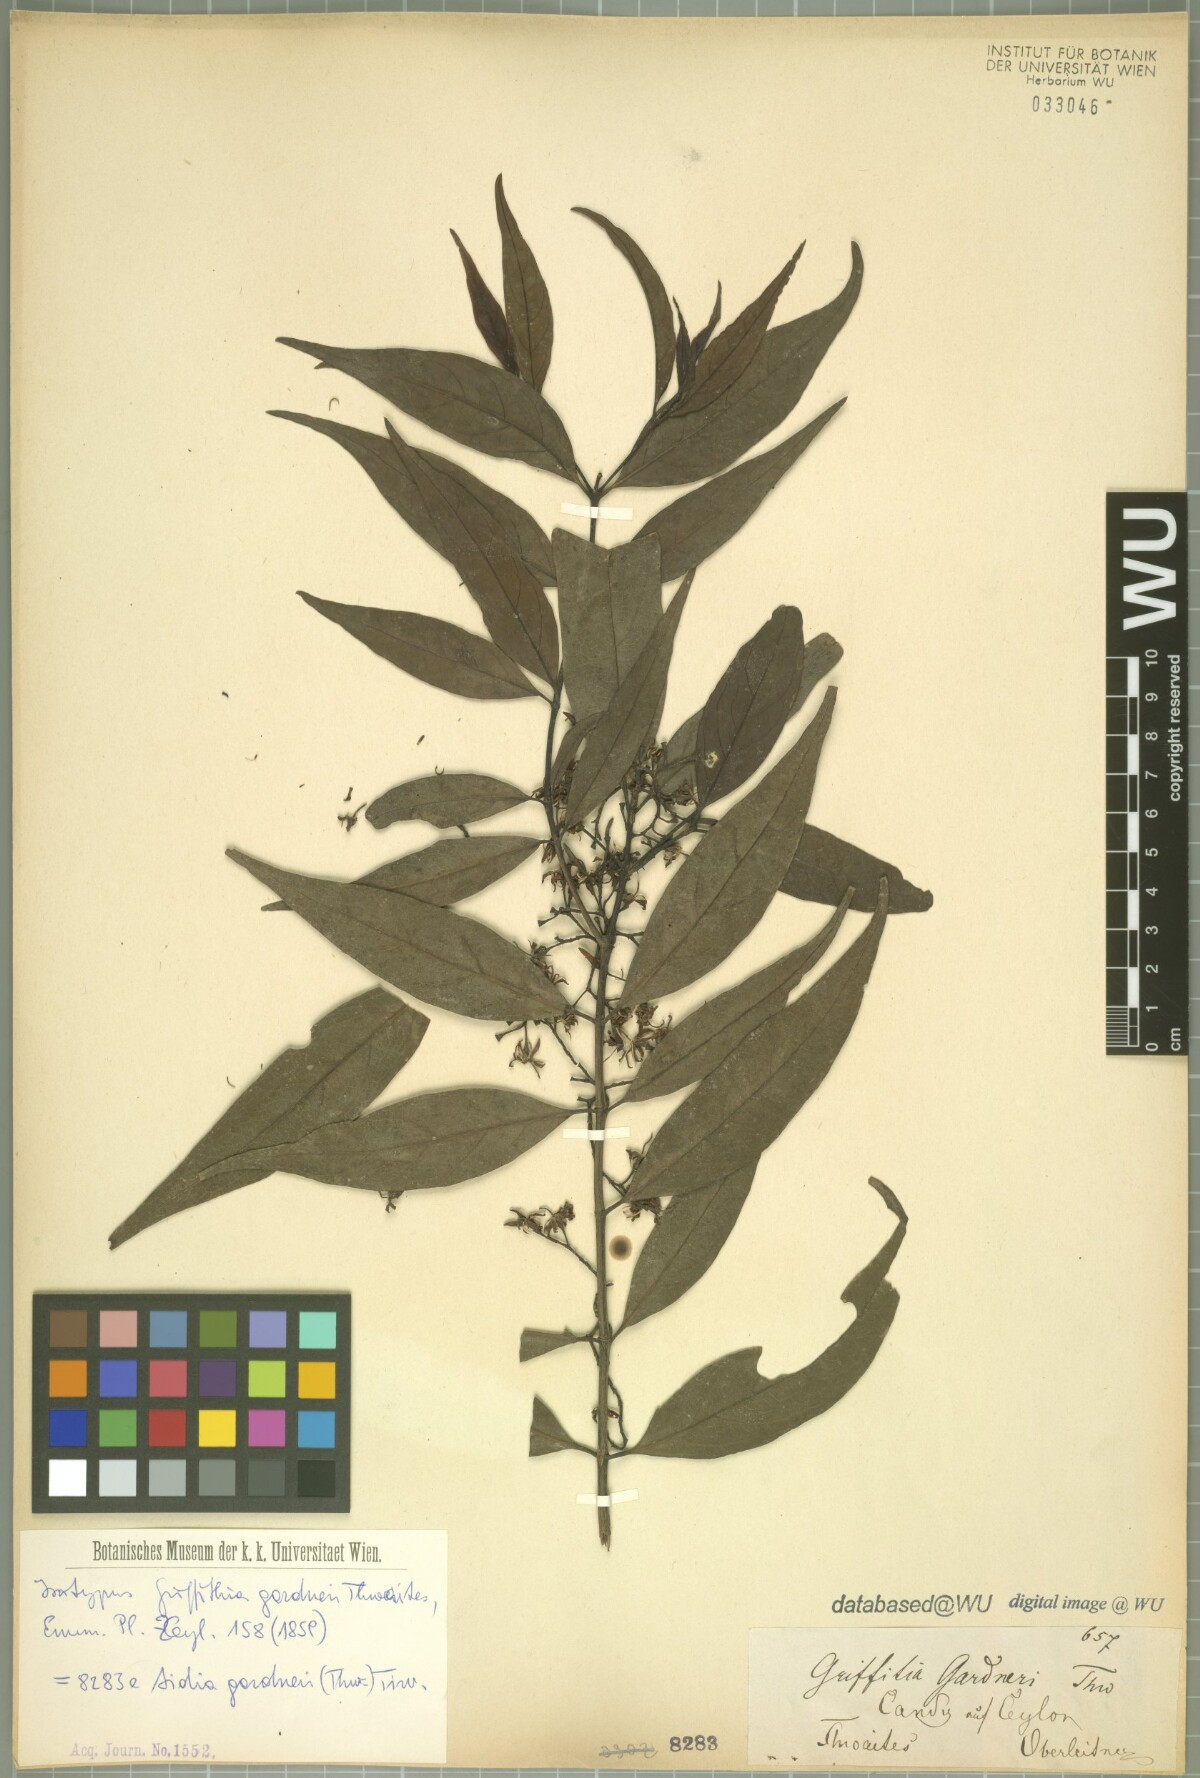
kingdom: Plantae
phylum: Tracheophyta
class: Magnoliopsida
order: Gentianales
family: Rubiaceae
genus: Aidia
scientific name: Aidia gardneri
